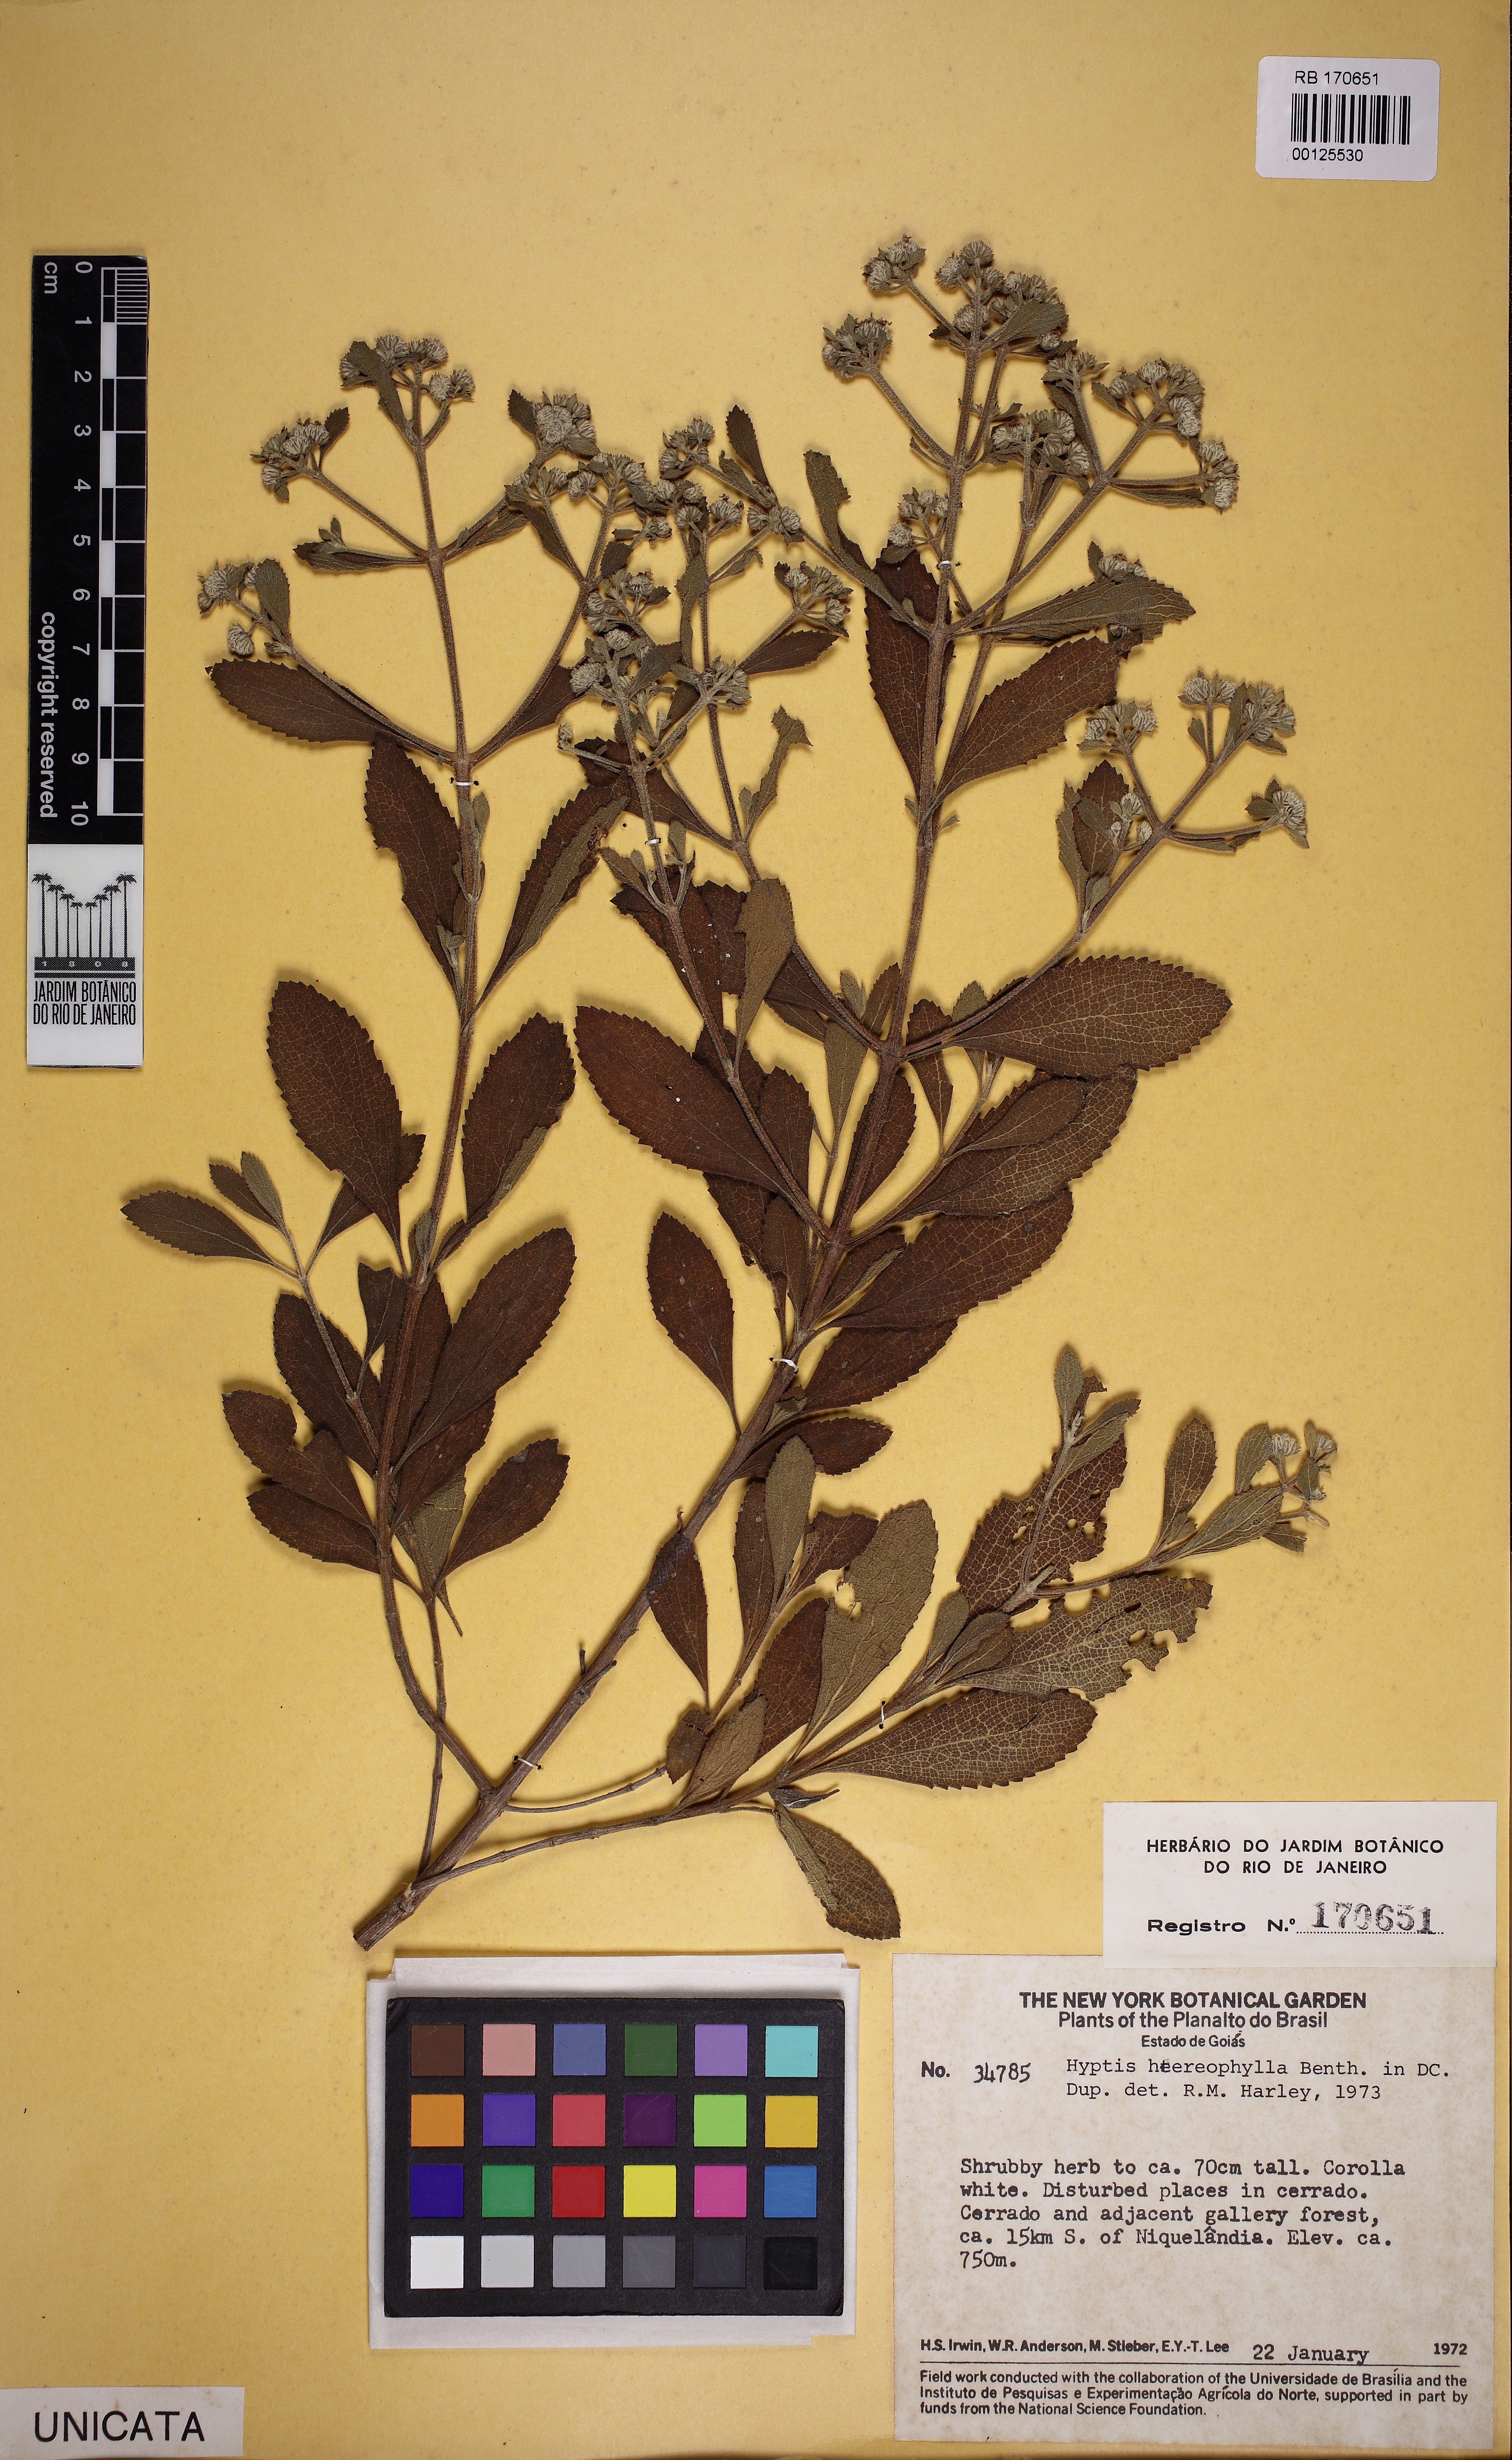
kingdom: Plantae
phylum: Tracheophyta
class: Magnoliopsida
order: Lamiales
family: Lamiaceae
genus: Hyptis
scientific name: Hyptis
